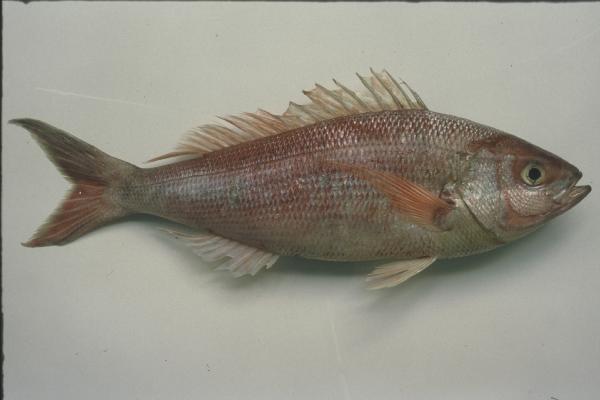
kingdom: Animalia
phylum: Chordata
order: Perciformes
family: Lutjanidae
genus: Pristipomoides
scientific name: Pristipomoides sieboldii
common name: Jobfish
